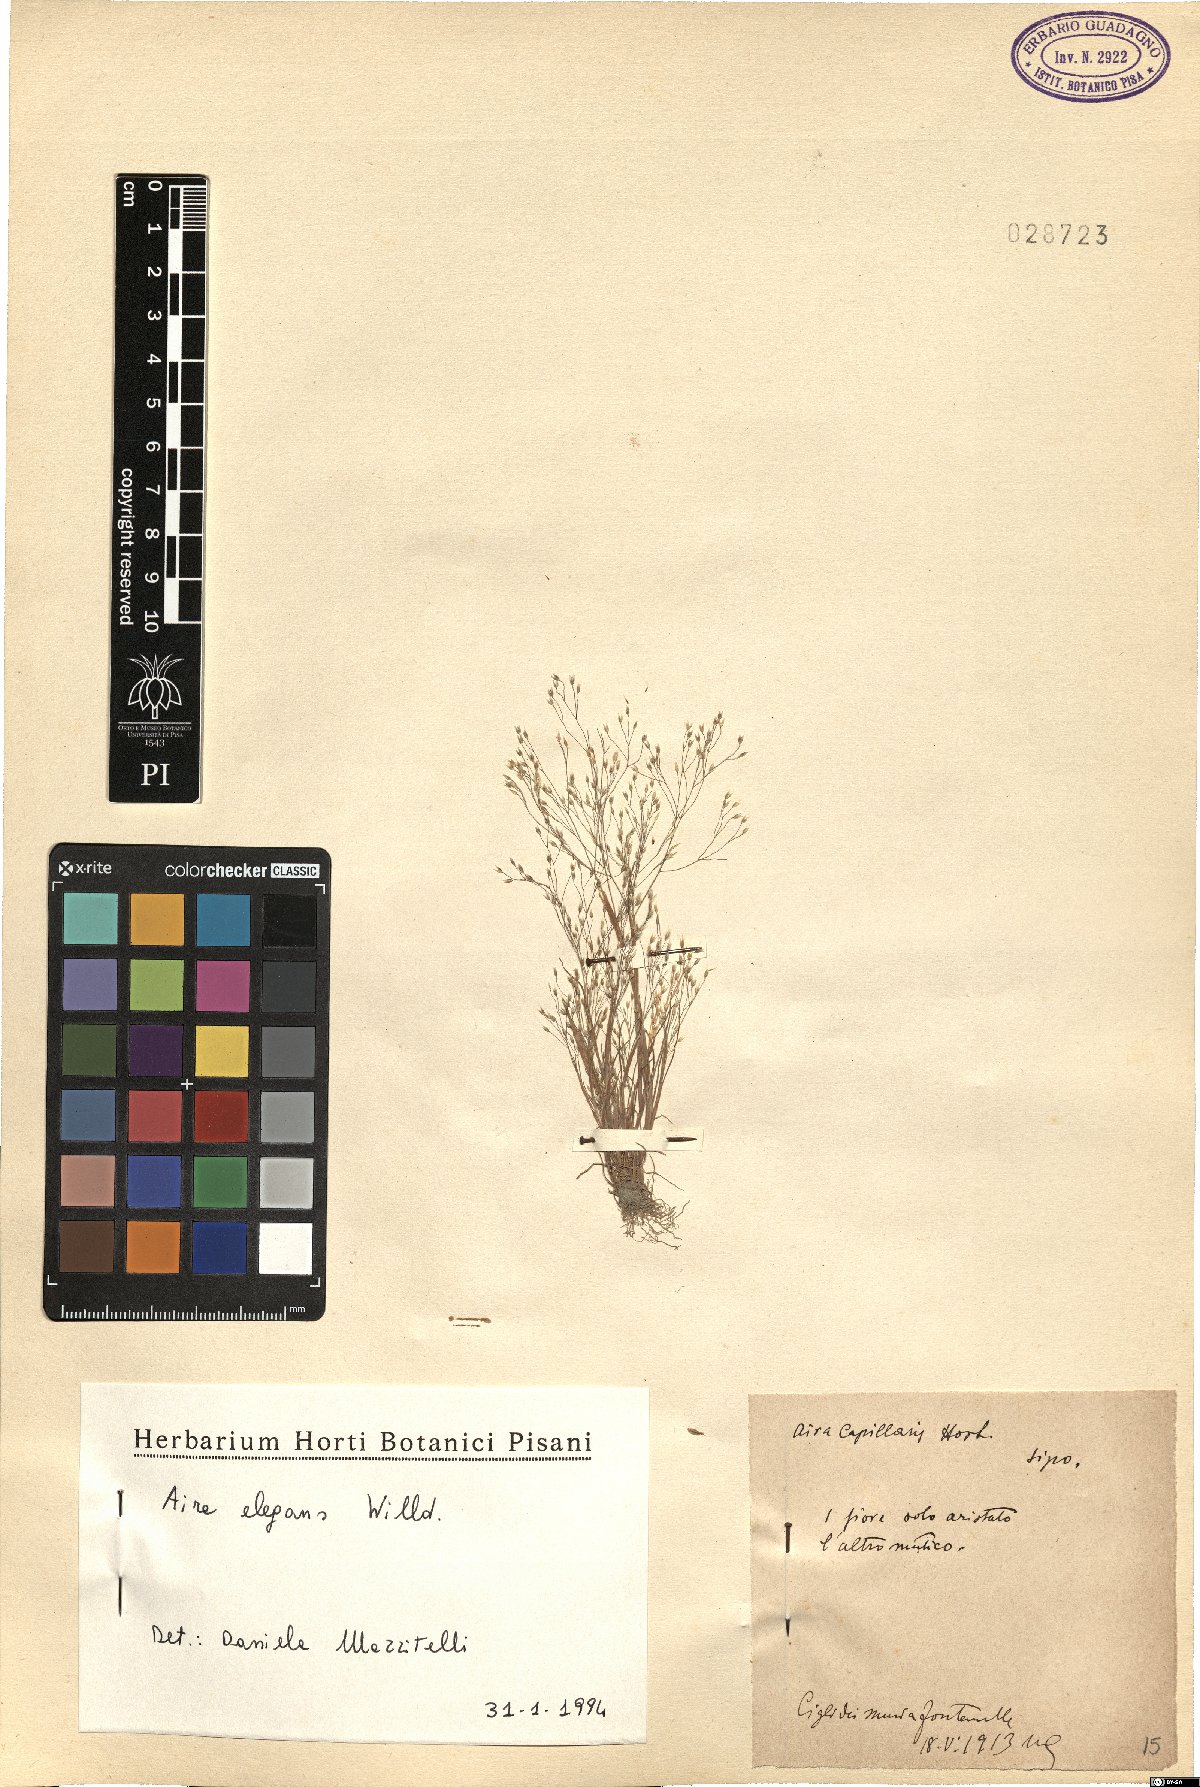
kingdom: Plantae
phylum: Tracheophyta
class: Liliopsida
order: Poales
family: Poaceae
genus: Aira
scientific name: Aira elegans
